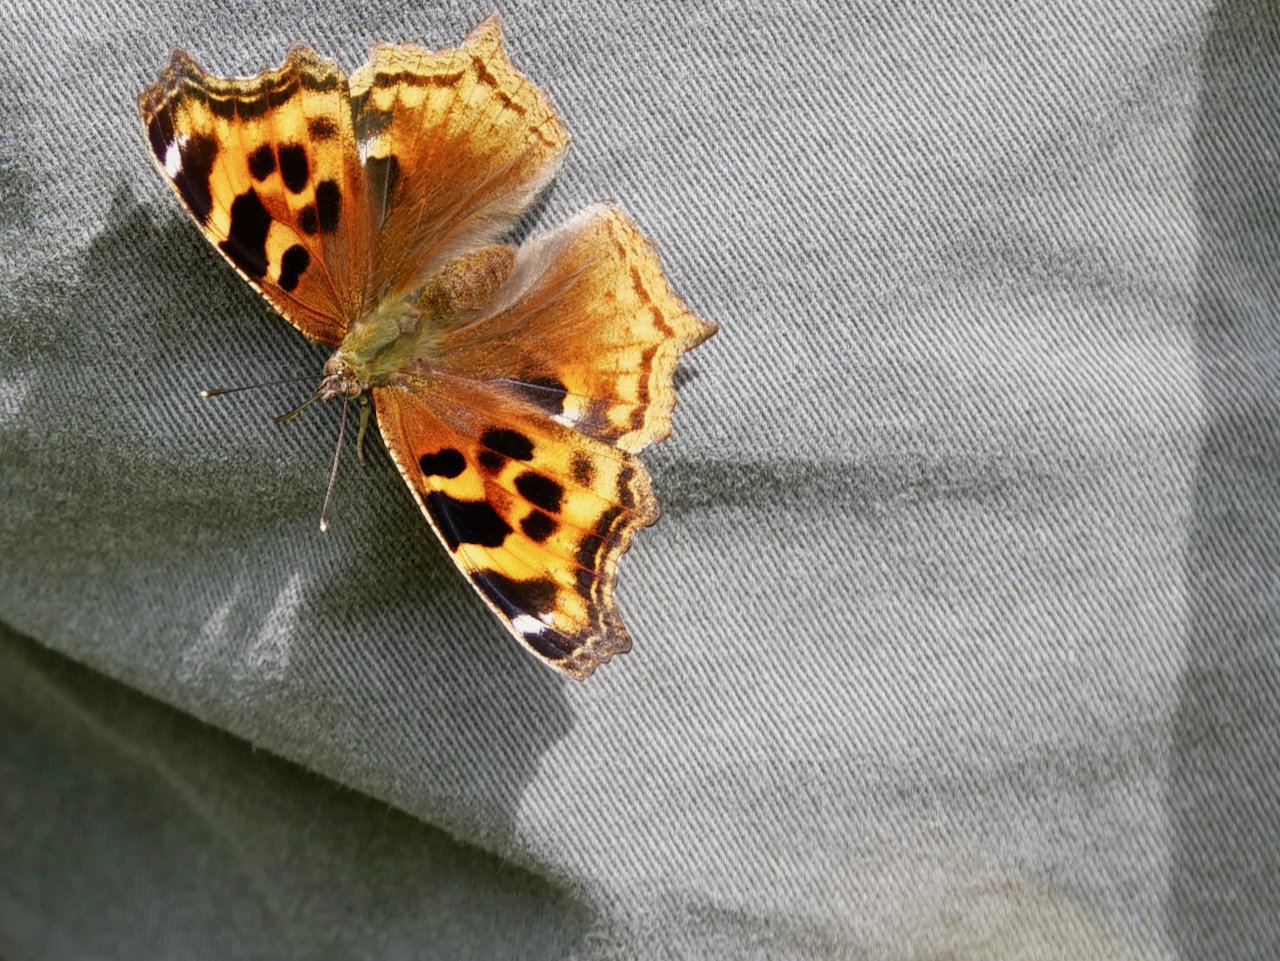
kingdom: Animalia
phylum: Arthropoda
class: Insecta
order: Lepidoptera
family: Nymphalidae
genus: Polygonia
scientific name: Polygonia vaualbum
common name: Compton Tortoiseshell
